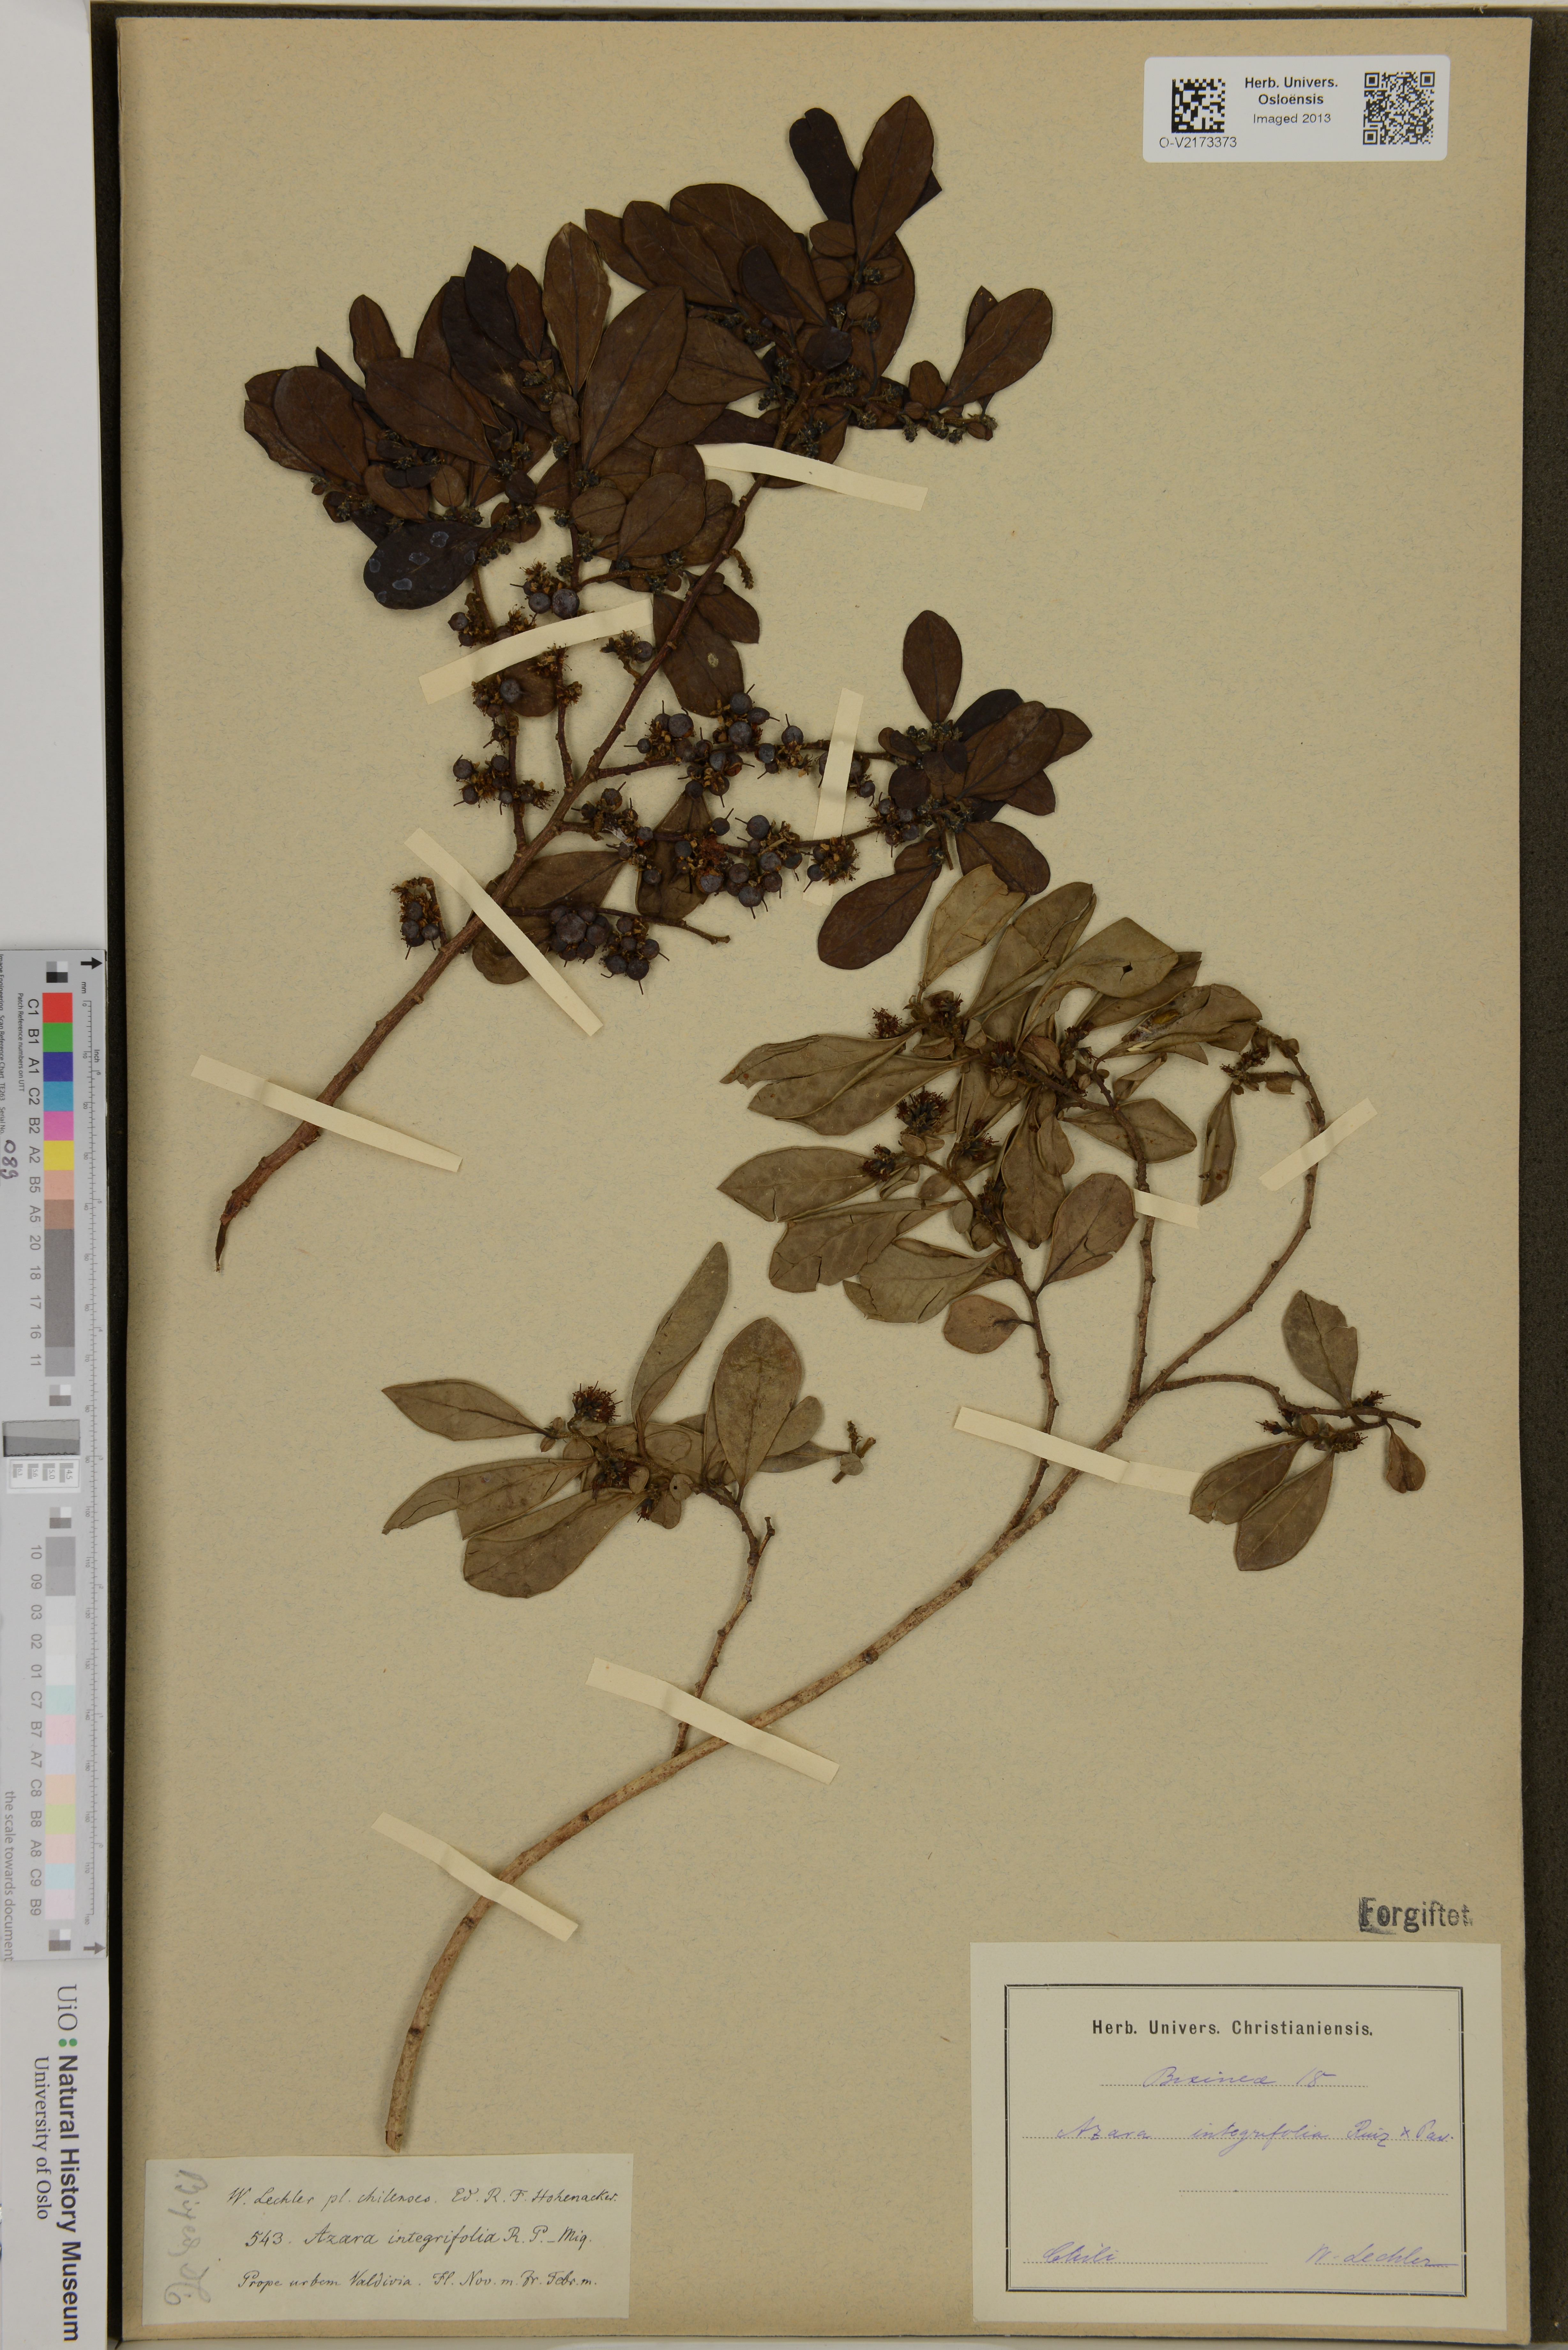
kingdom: Plantae
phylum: Tracheophyta
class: Magnoliopsida
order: Malpighiales
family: Salicaceae
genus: Azara
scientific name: Azara integrifolia
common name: Goldspire
